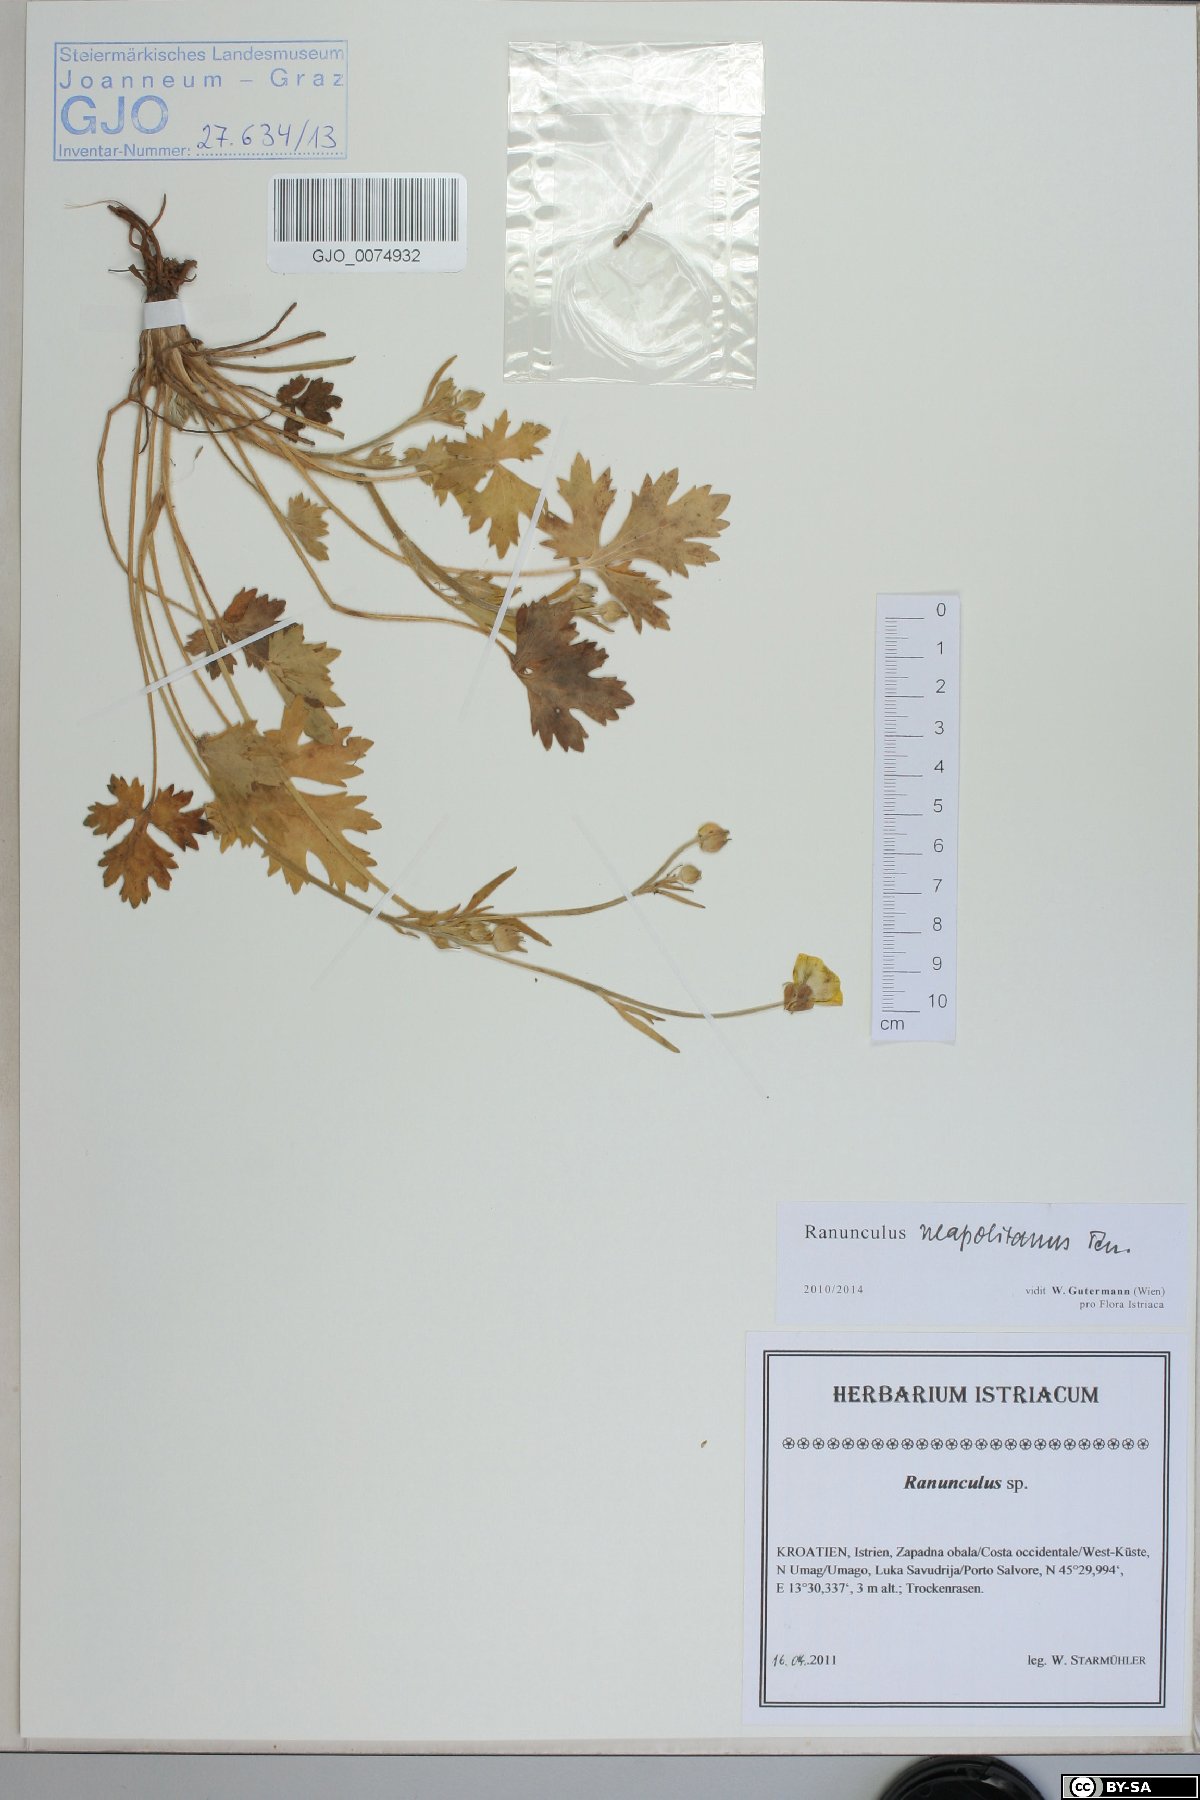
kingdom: Plantae
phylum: Tracheophyta
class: Magnoliopsida
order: Ranunculales
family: Ranunculaceae
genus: Ranunculus
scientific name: Ranunculus neapolitanus
